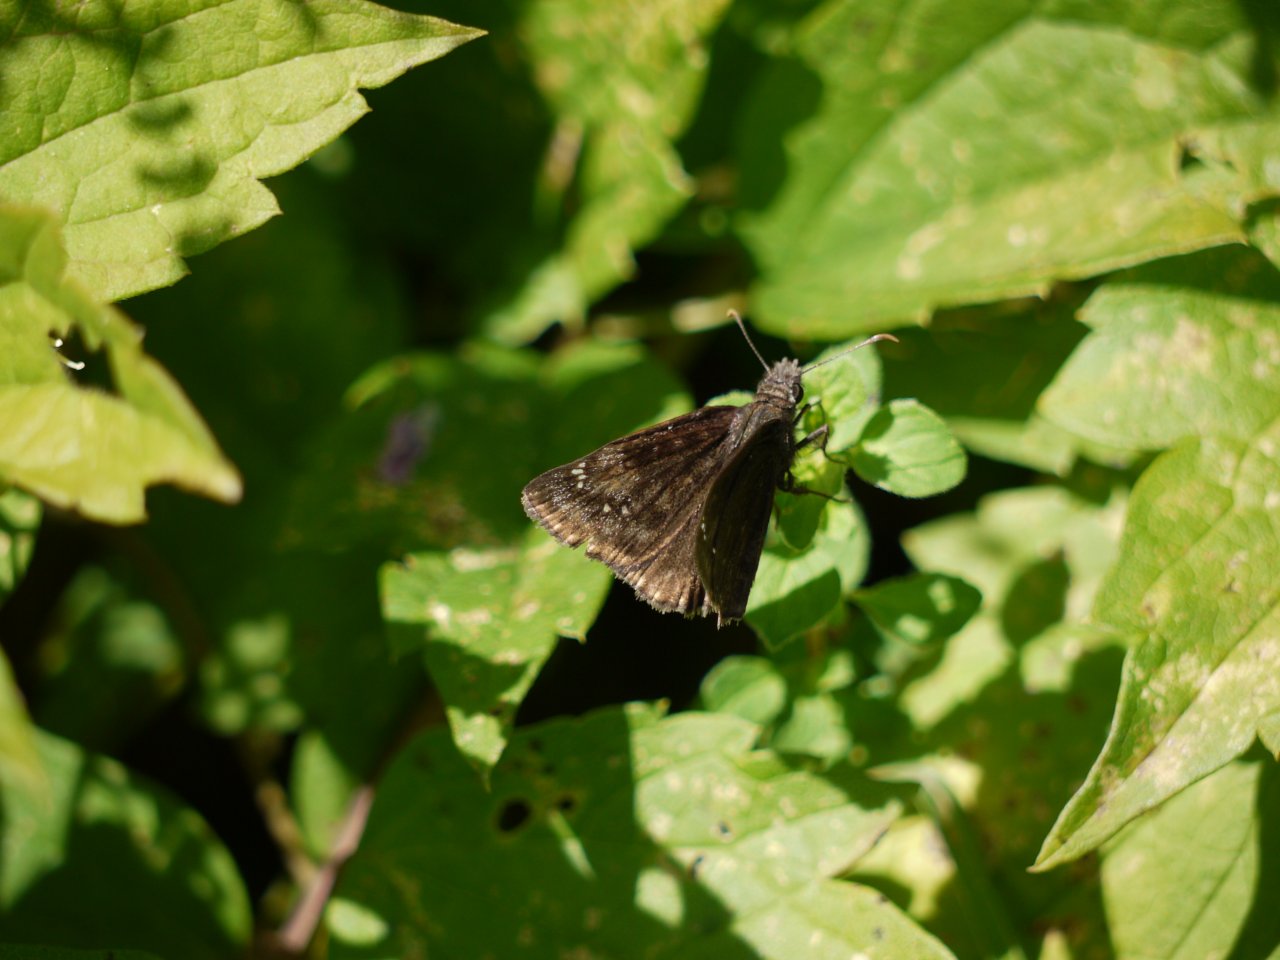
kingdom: Animalia
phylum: Arthropoda
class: Insecta
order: Lepidoptera
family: Hesperiidae
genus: Erynnis
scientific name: Erynnis
